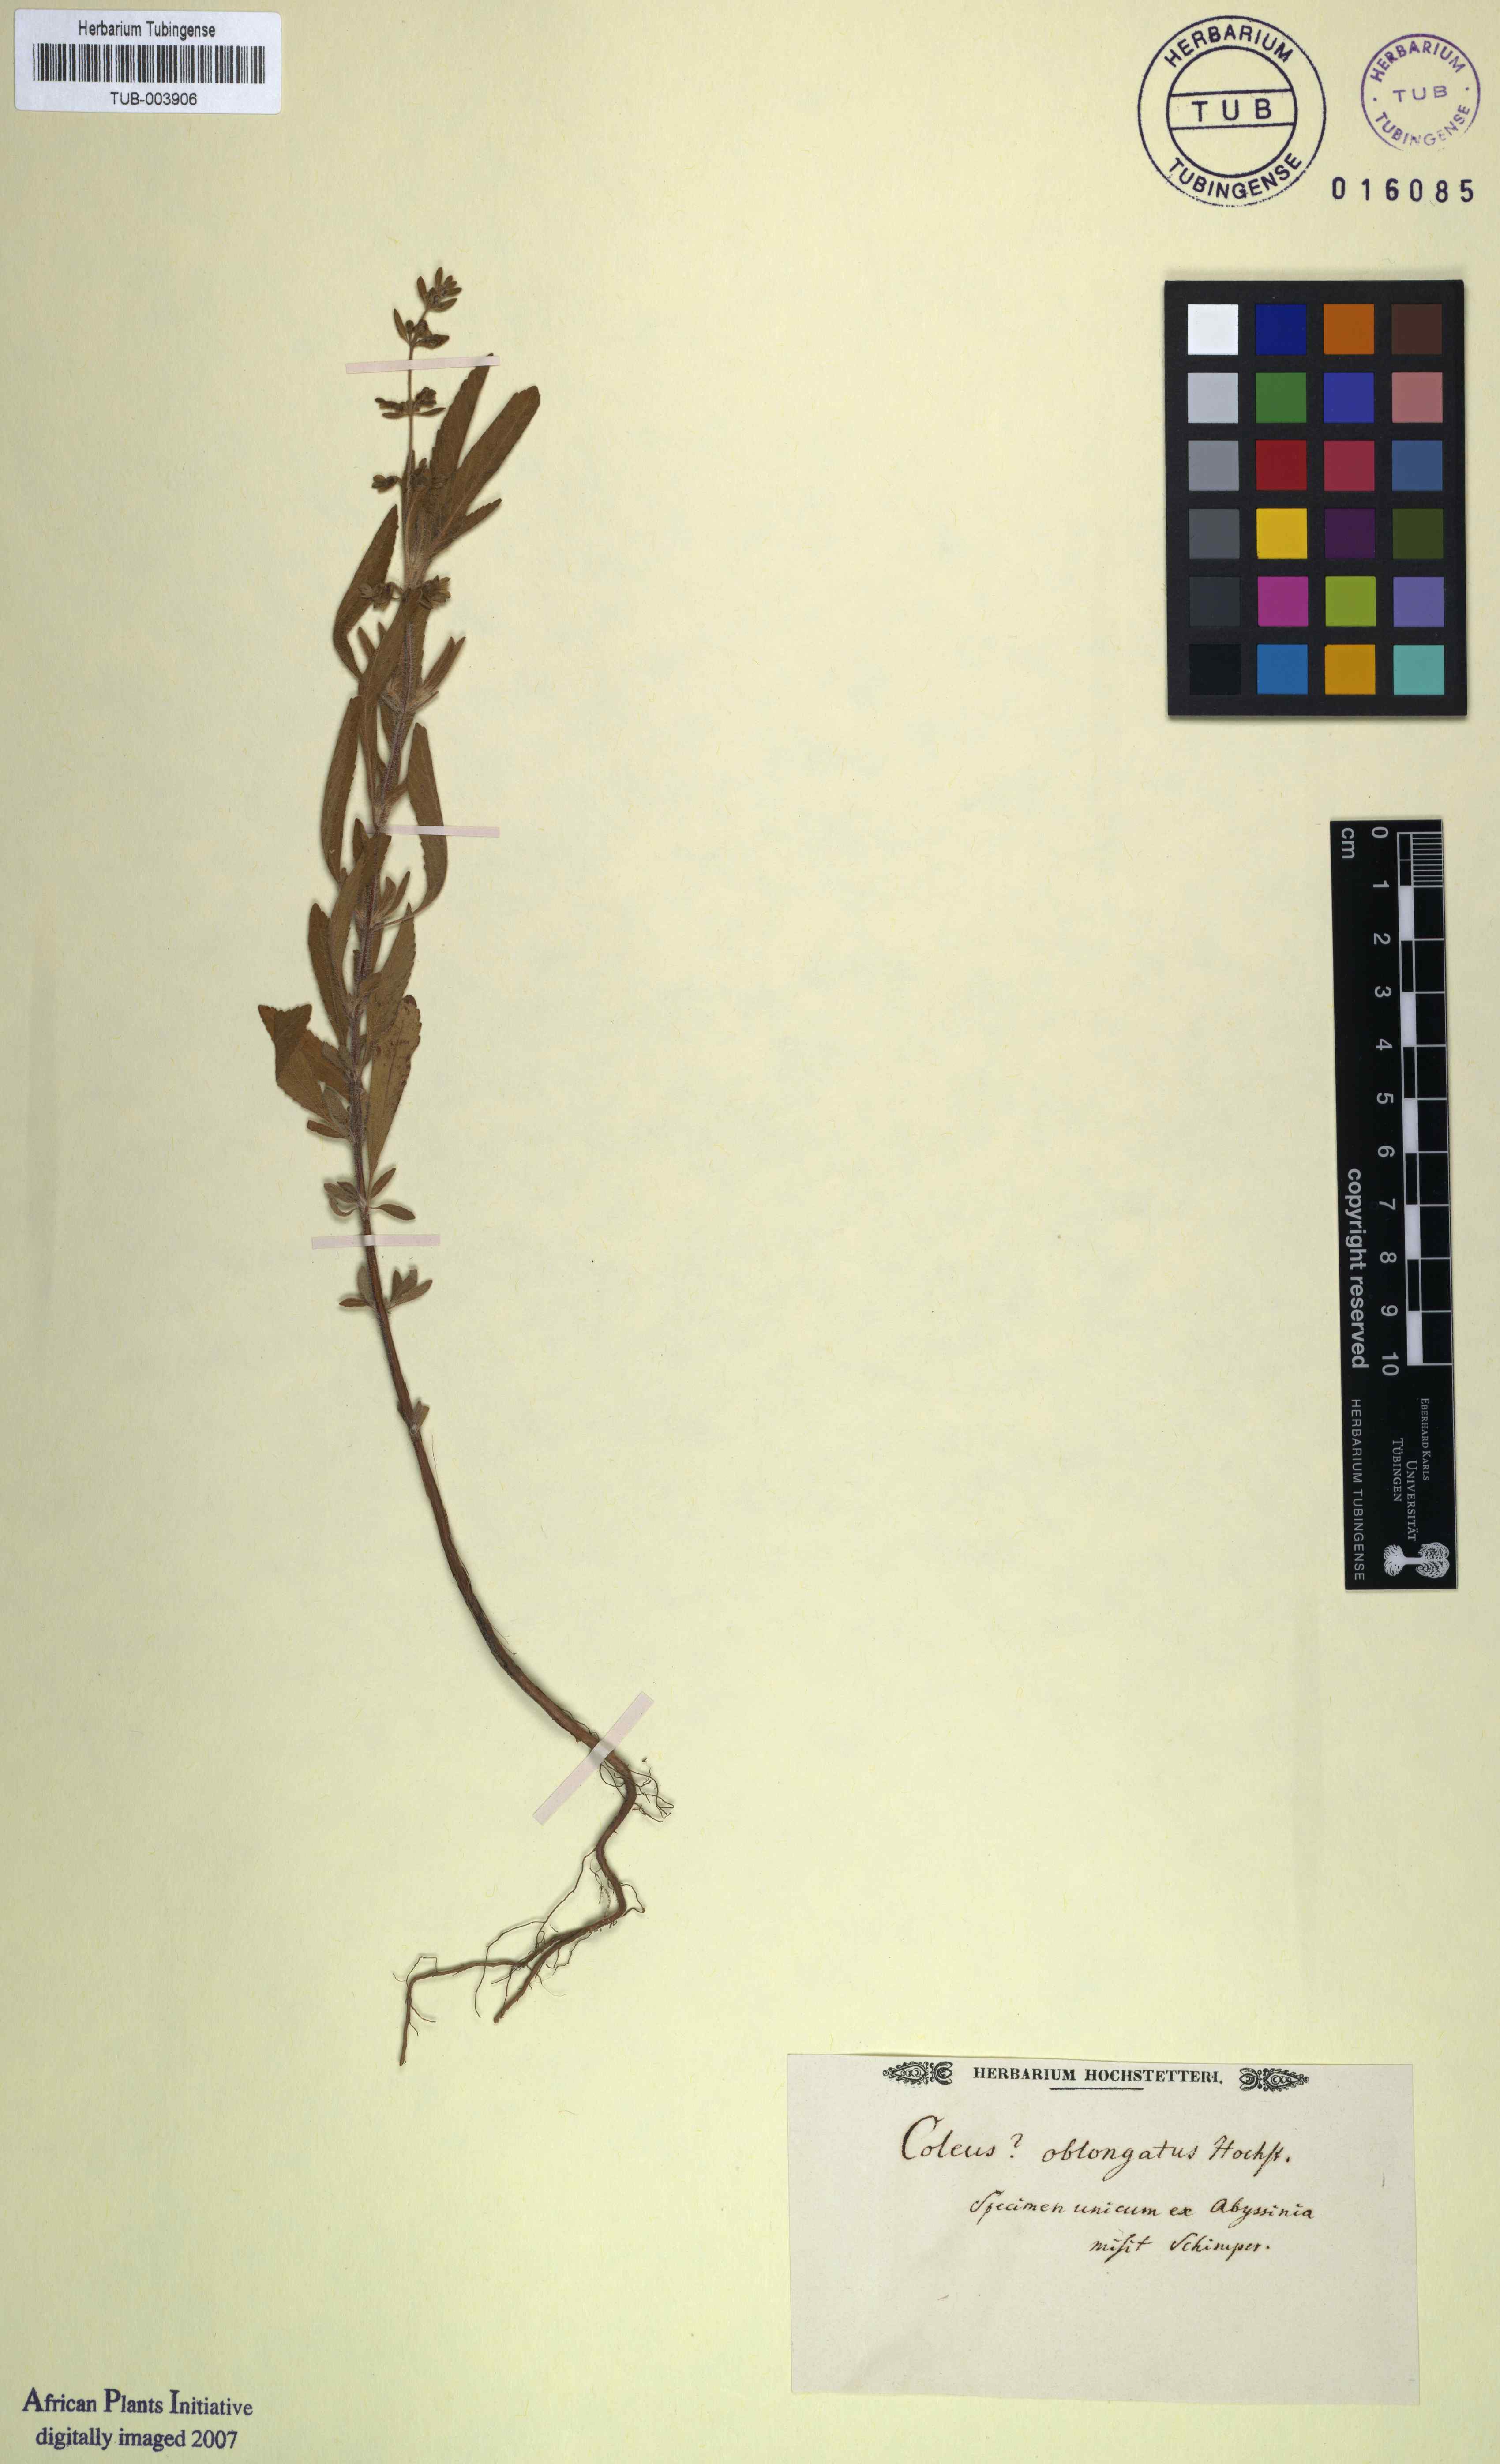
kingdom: Plantae
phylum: Tracheophyta
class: Magnoliopsida
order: Lamiales
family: Lamiaceae
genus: Coleus
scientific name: Coleus
